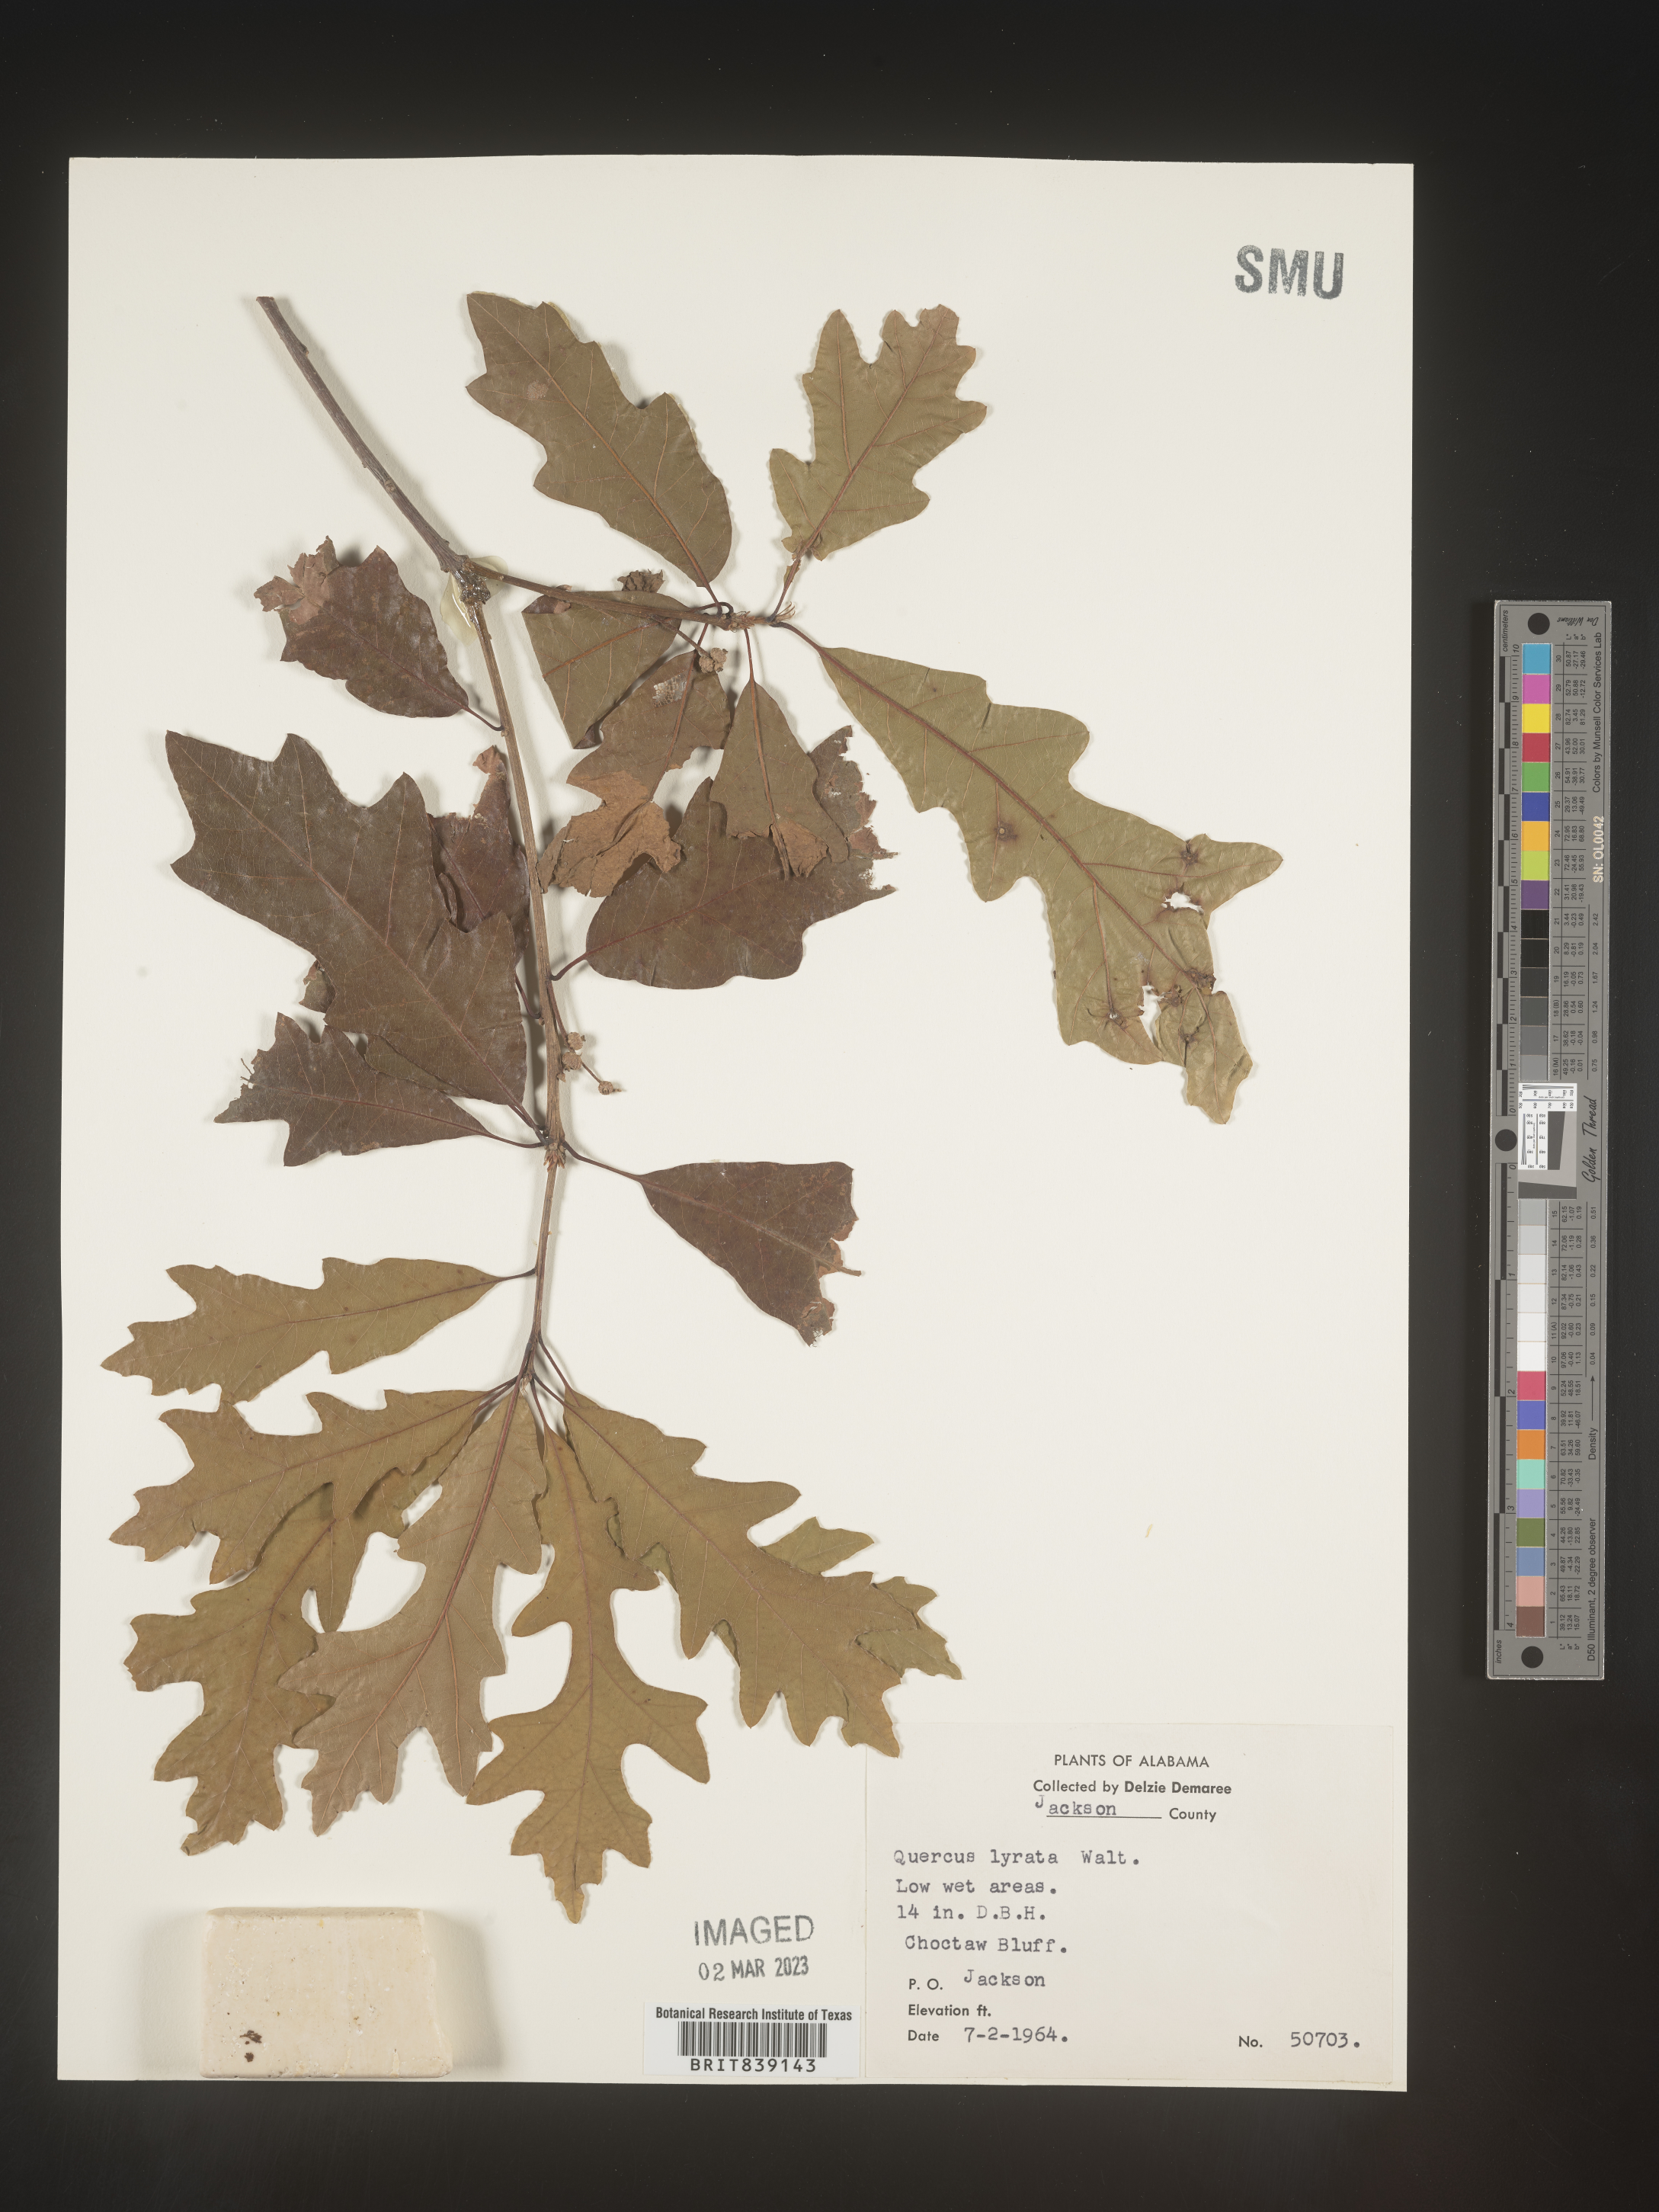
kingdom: Plantae
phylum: Tracheophyta
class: Magnoliopsida
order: Fagales
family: Fagaceae
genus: Quercus
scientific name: Quercus lyrata
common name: Overcup oak
